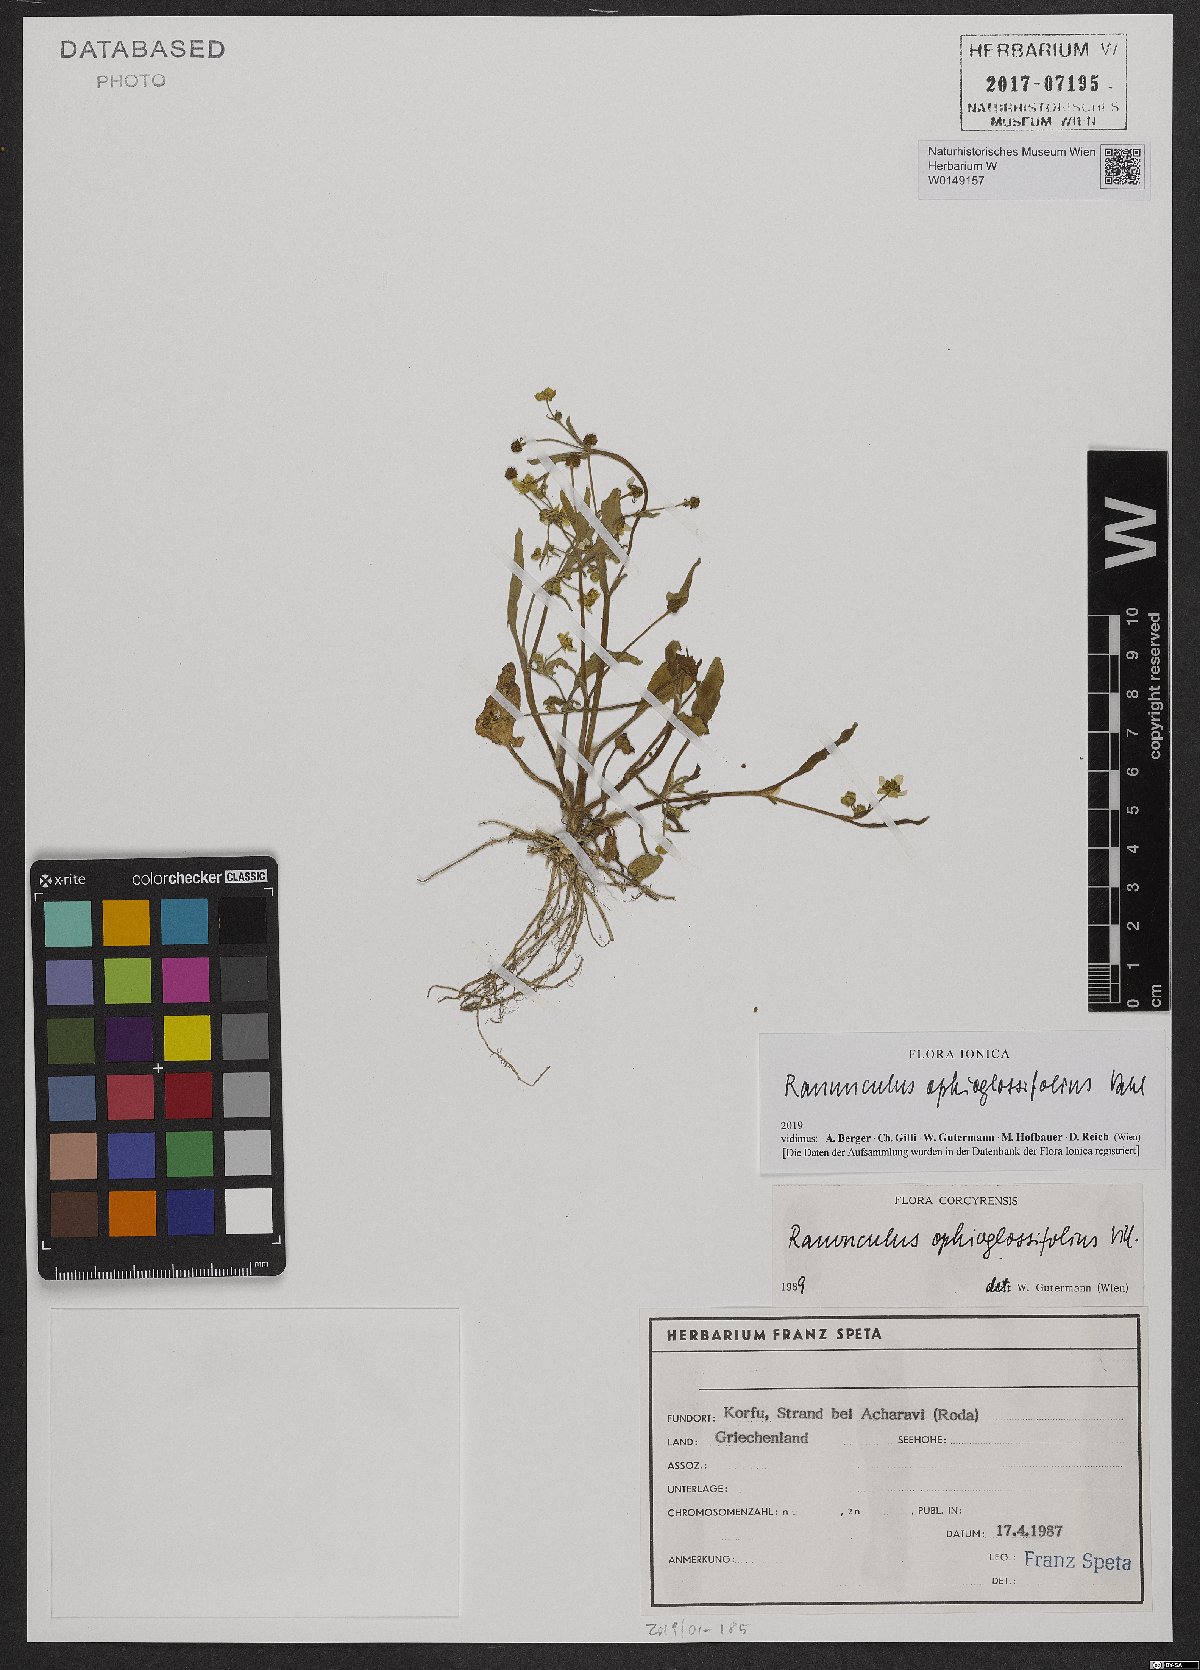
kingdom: Plantae
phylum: Tracheophyta
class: Magnoliopsida
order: Ranunculales
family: Ranunculaceae
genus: Ranunculus
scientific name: Ranunculus ophioglossifolius
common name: Adder's-tongue spearwort
